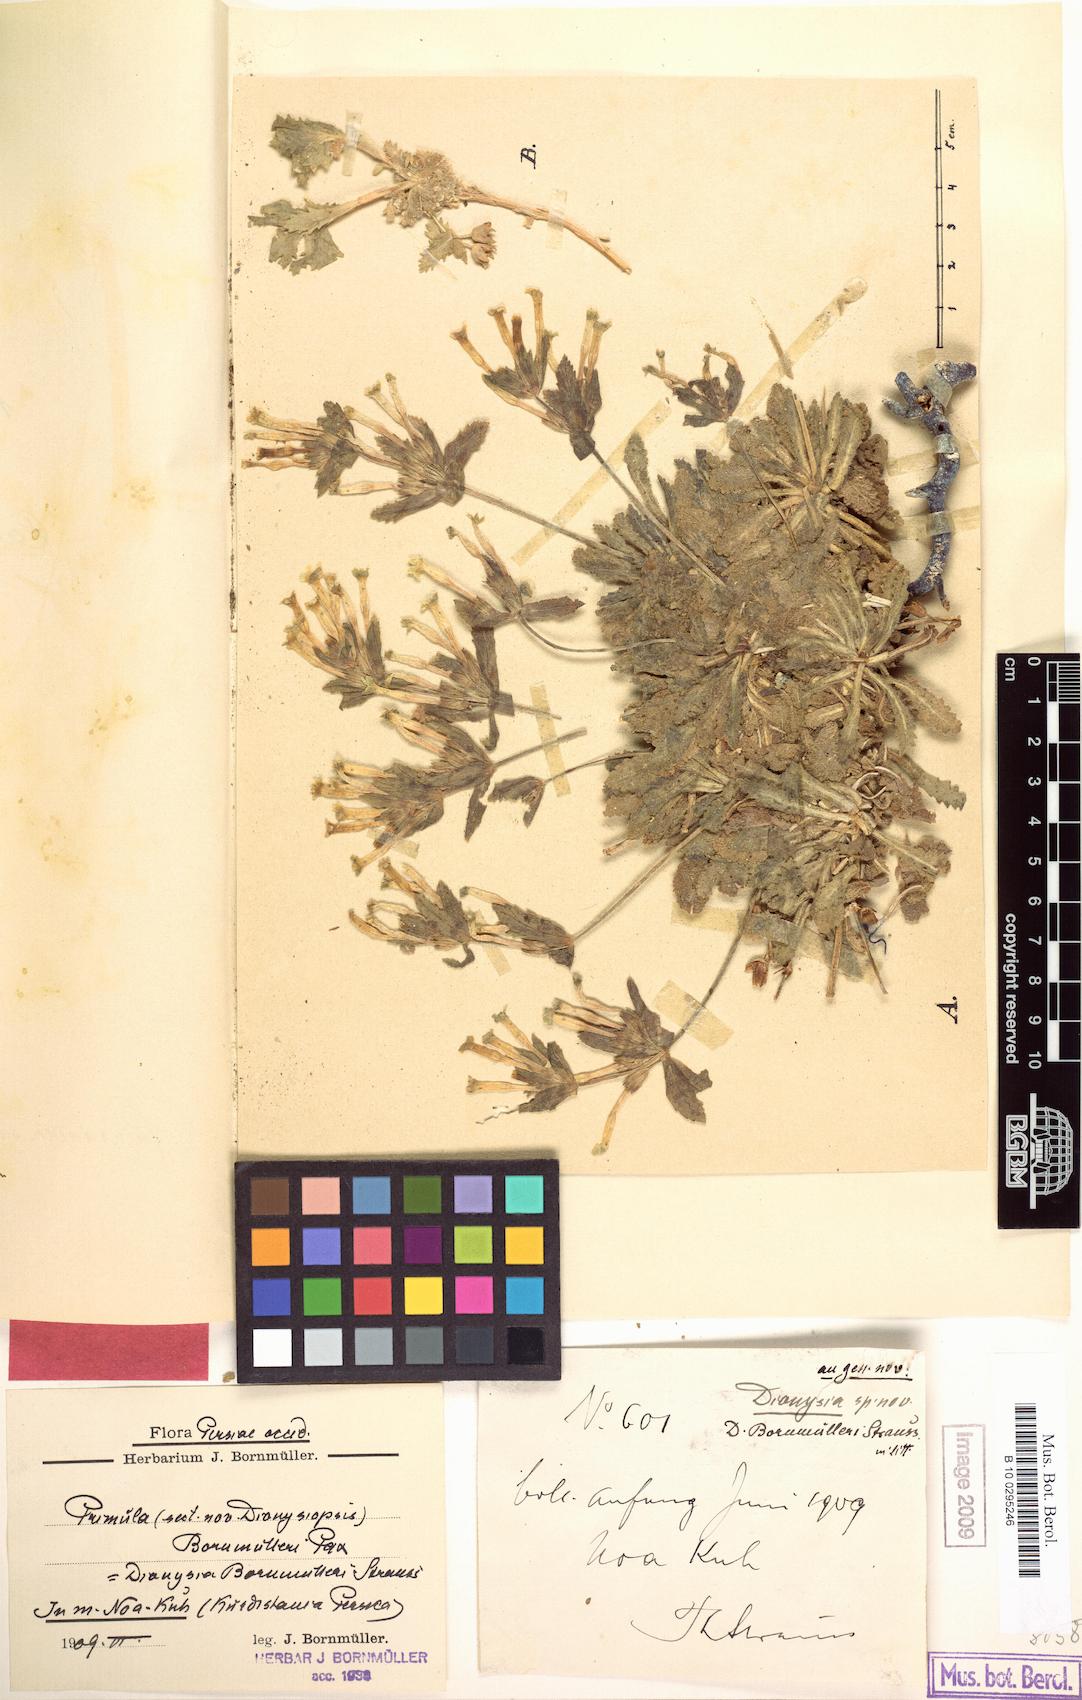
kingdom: Plantae
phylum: Tracheophyta
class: Magnoliopsida
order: Ericales
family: Primulaceae
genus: Dionysia
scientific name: Dionysia bornmuelleri
